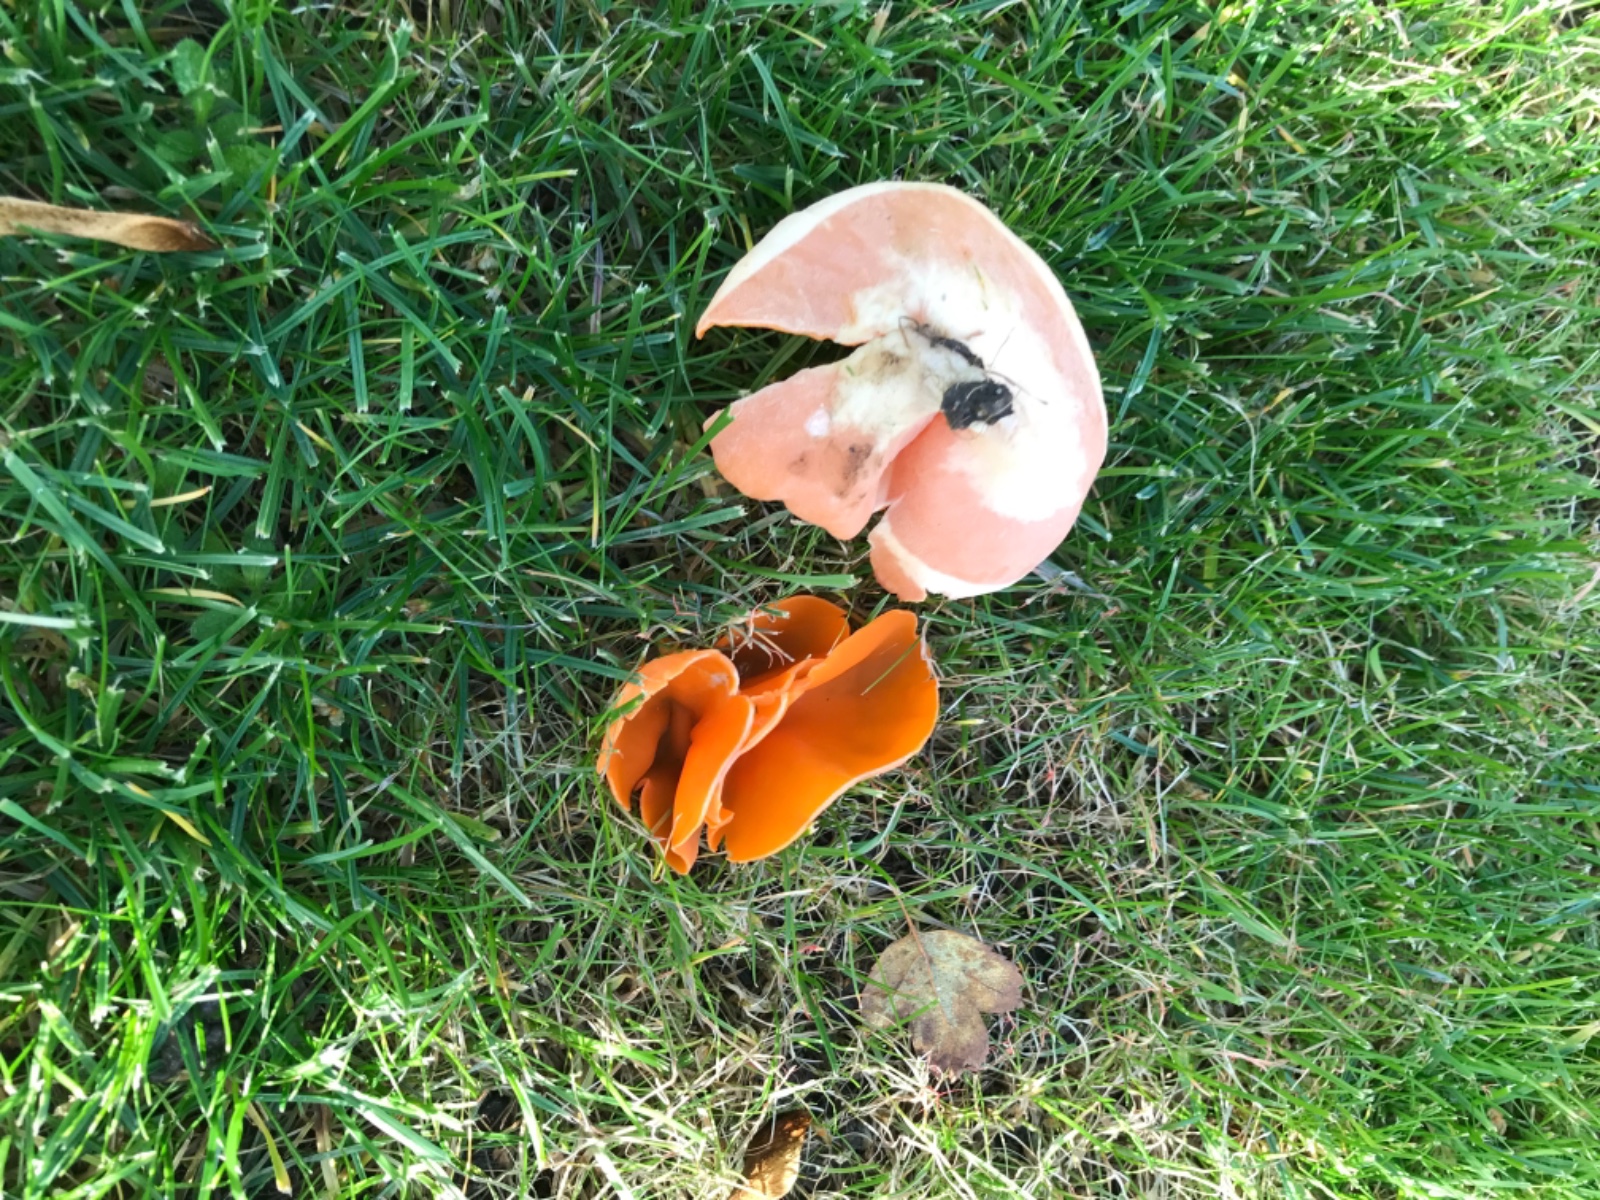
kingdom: Fungi
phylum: Ascomycota
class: Pezizomycetes
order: Pezizales
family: Pyronemataceae
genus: Aleuria
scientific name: Aleuria aurantia
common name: almindelig orangebæger
